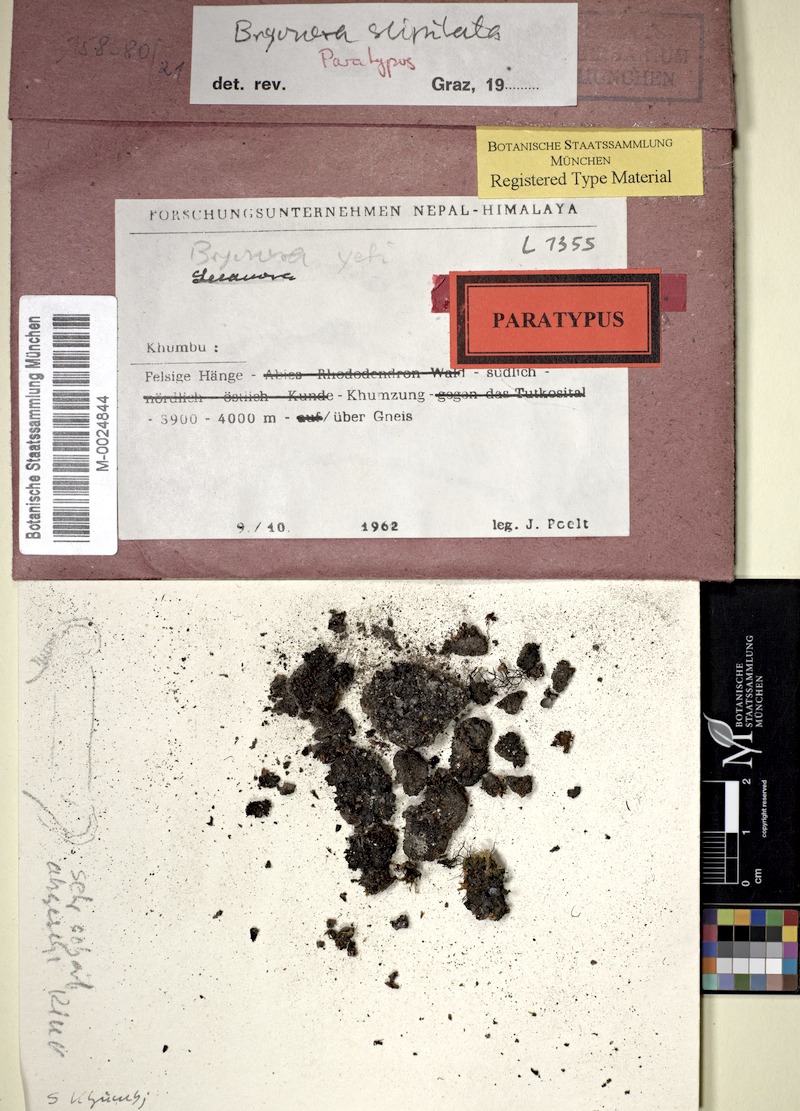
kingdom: Fungi
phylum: Ascomycota
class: Lecanoromycetes
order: Lecanorales
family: Lecanoraceae
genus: Bryonora
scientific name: Bryonora stipitata
